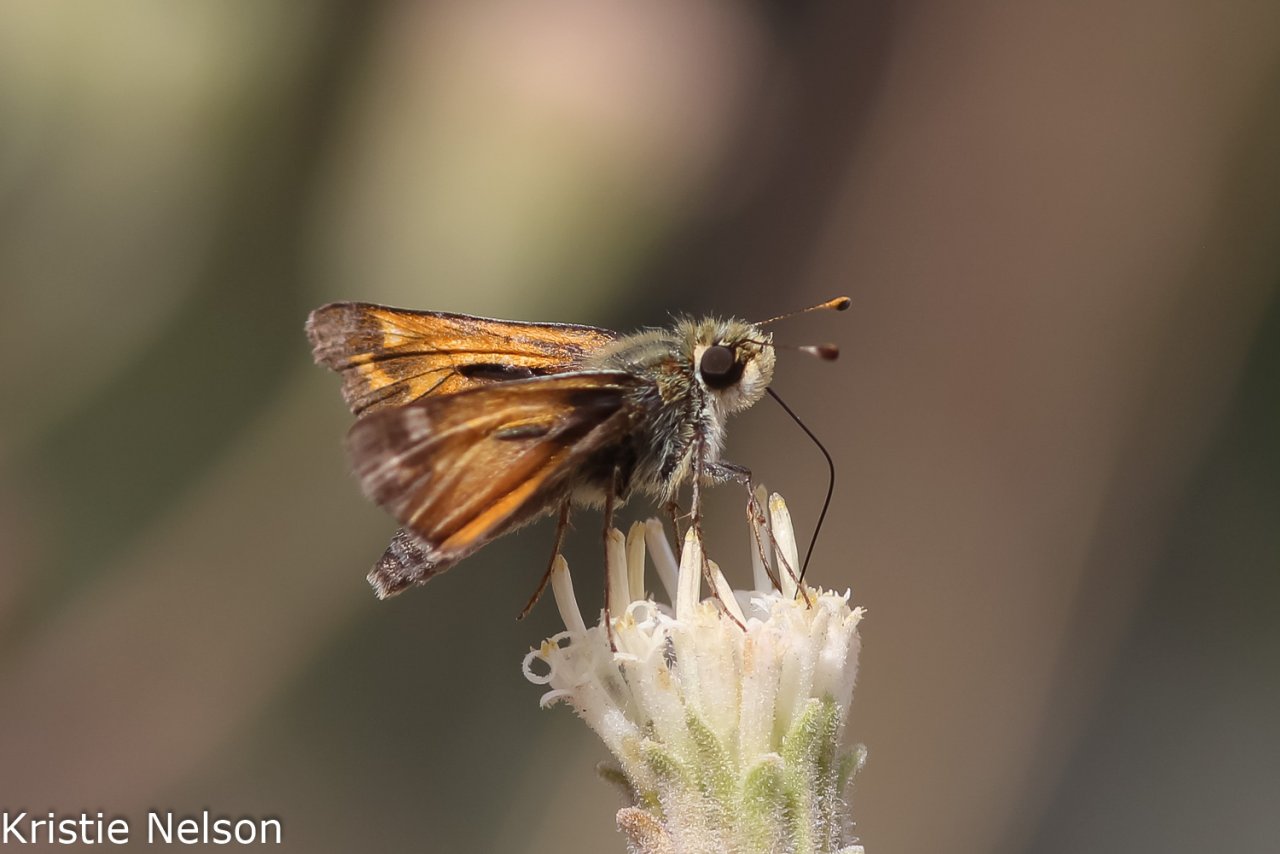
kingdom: Animalia
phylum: Arthropoda
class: Insecta
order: Lepidoptera
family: Hesperiidae
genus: Hesperia
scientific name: Hesperia lindseyi
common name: Lindsey's Skipper
